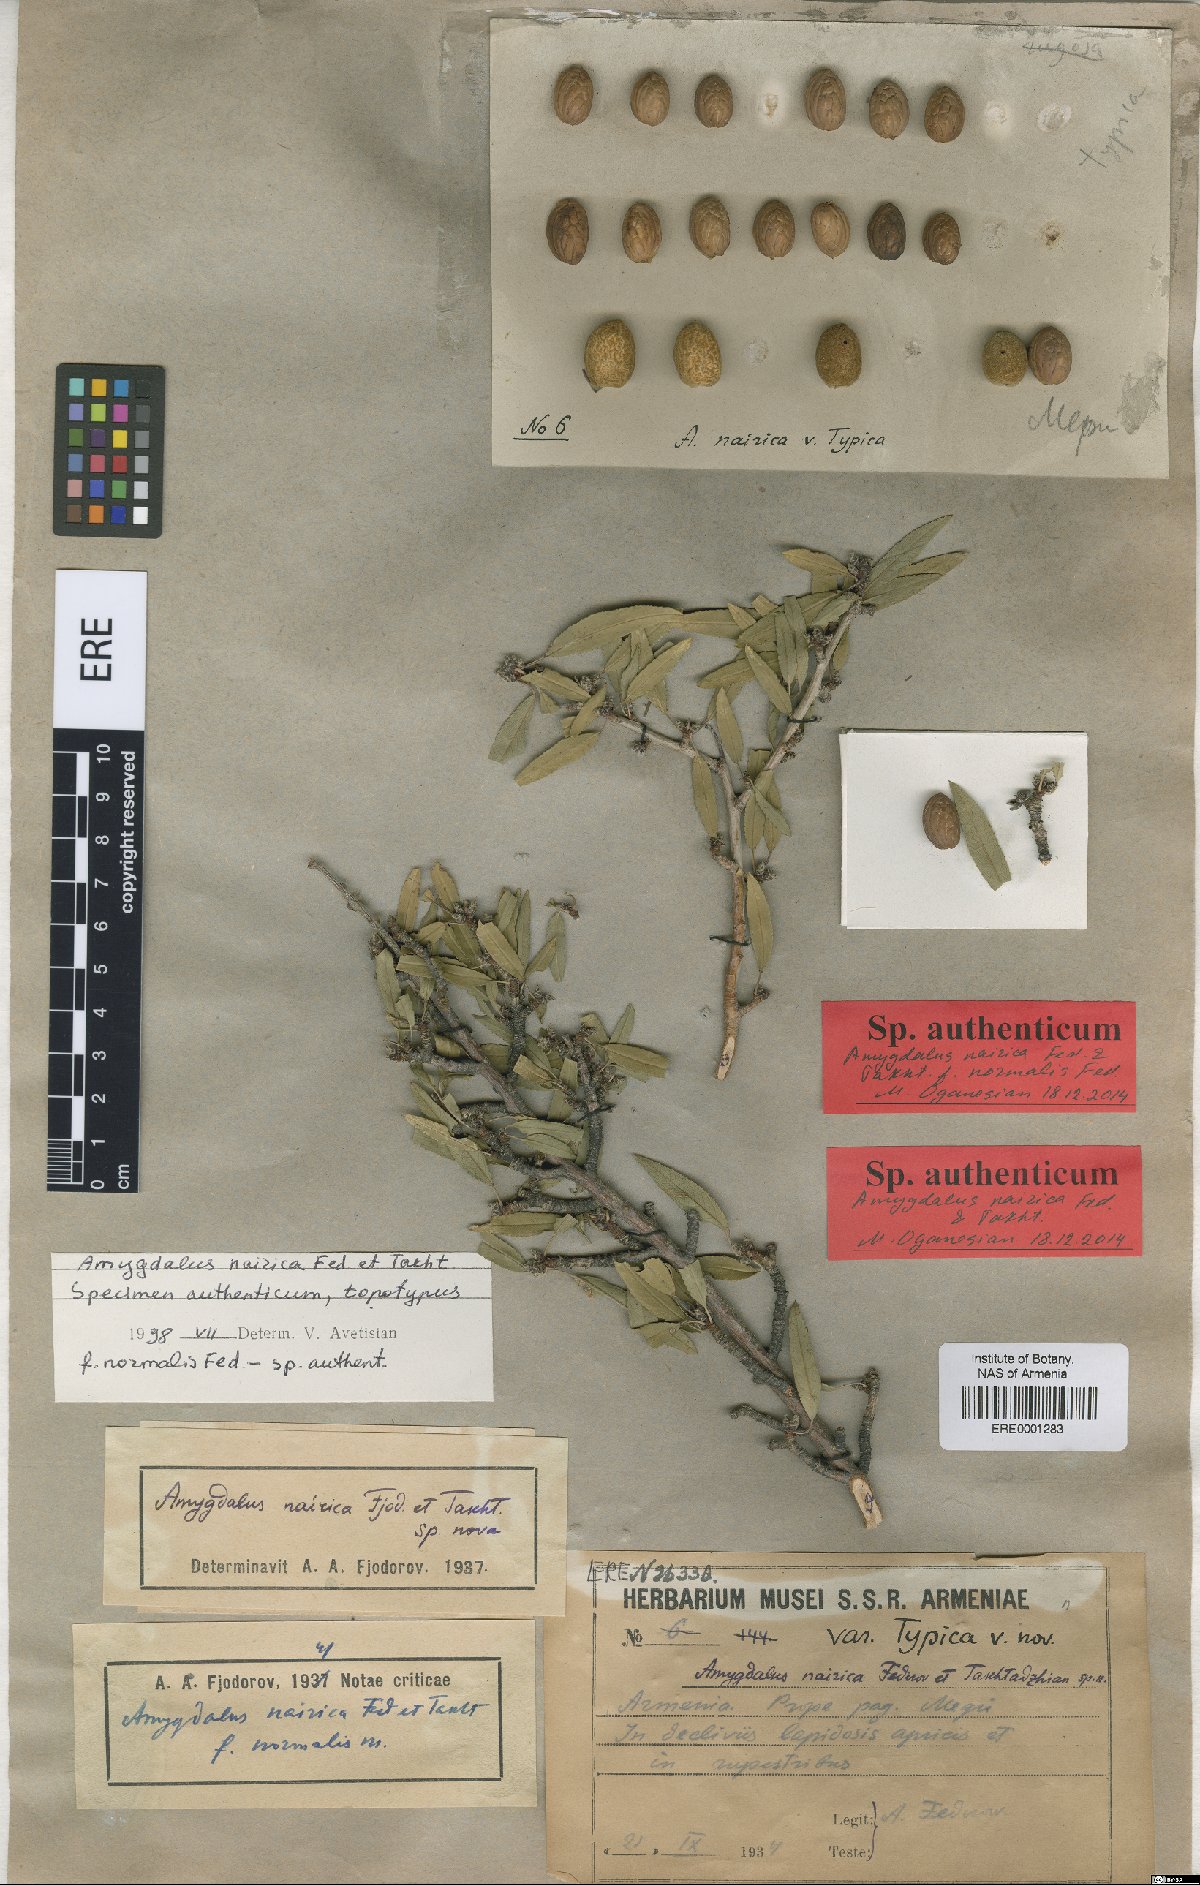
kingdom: Plantae
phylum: Tracheophyta
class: Magnoliopsida
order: Rosales
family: Rosaceae
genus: Prunus
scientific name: Prunus nairica
